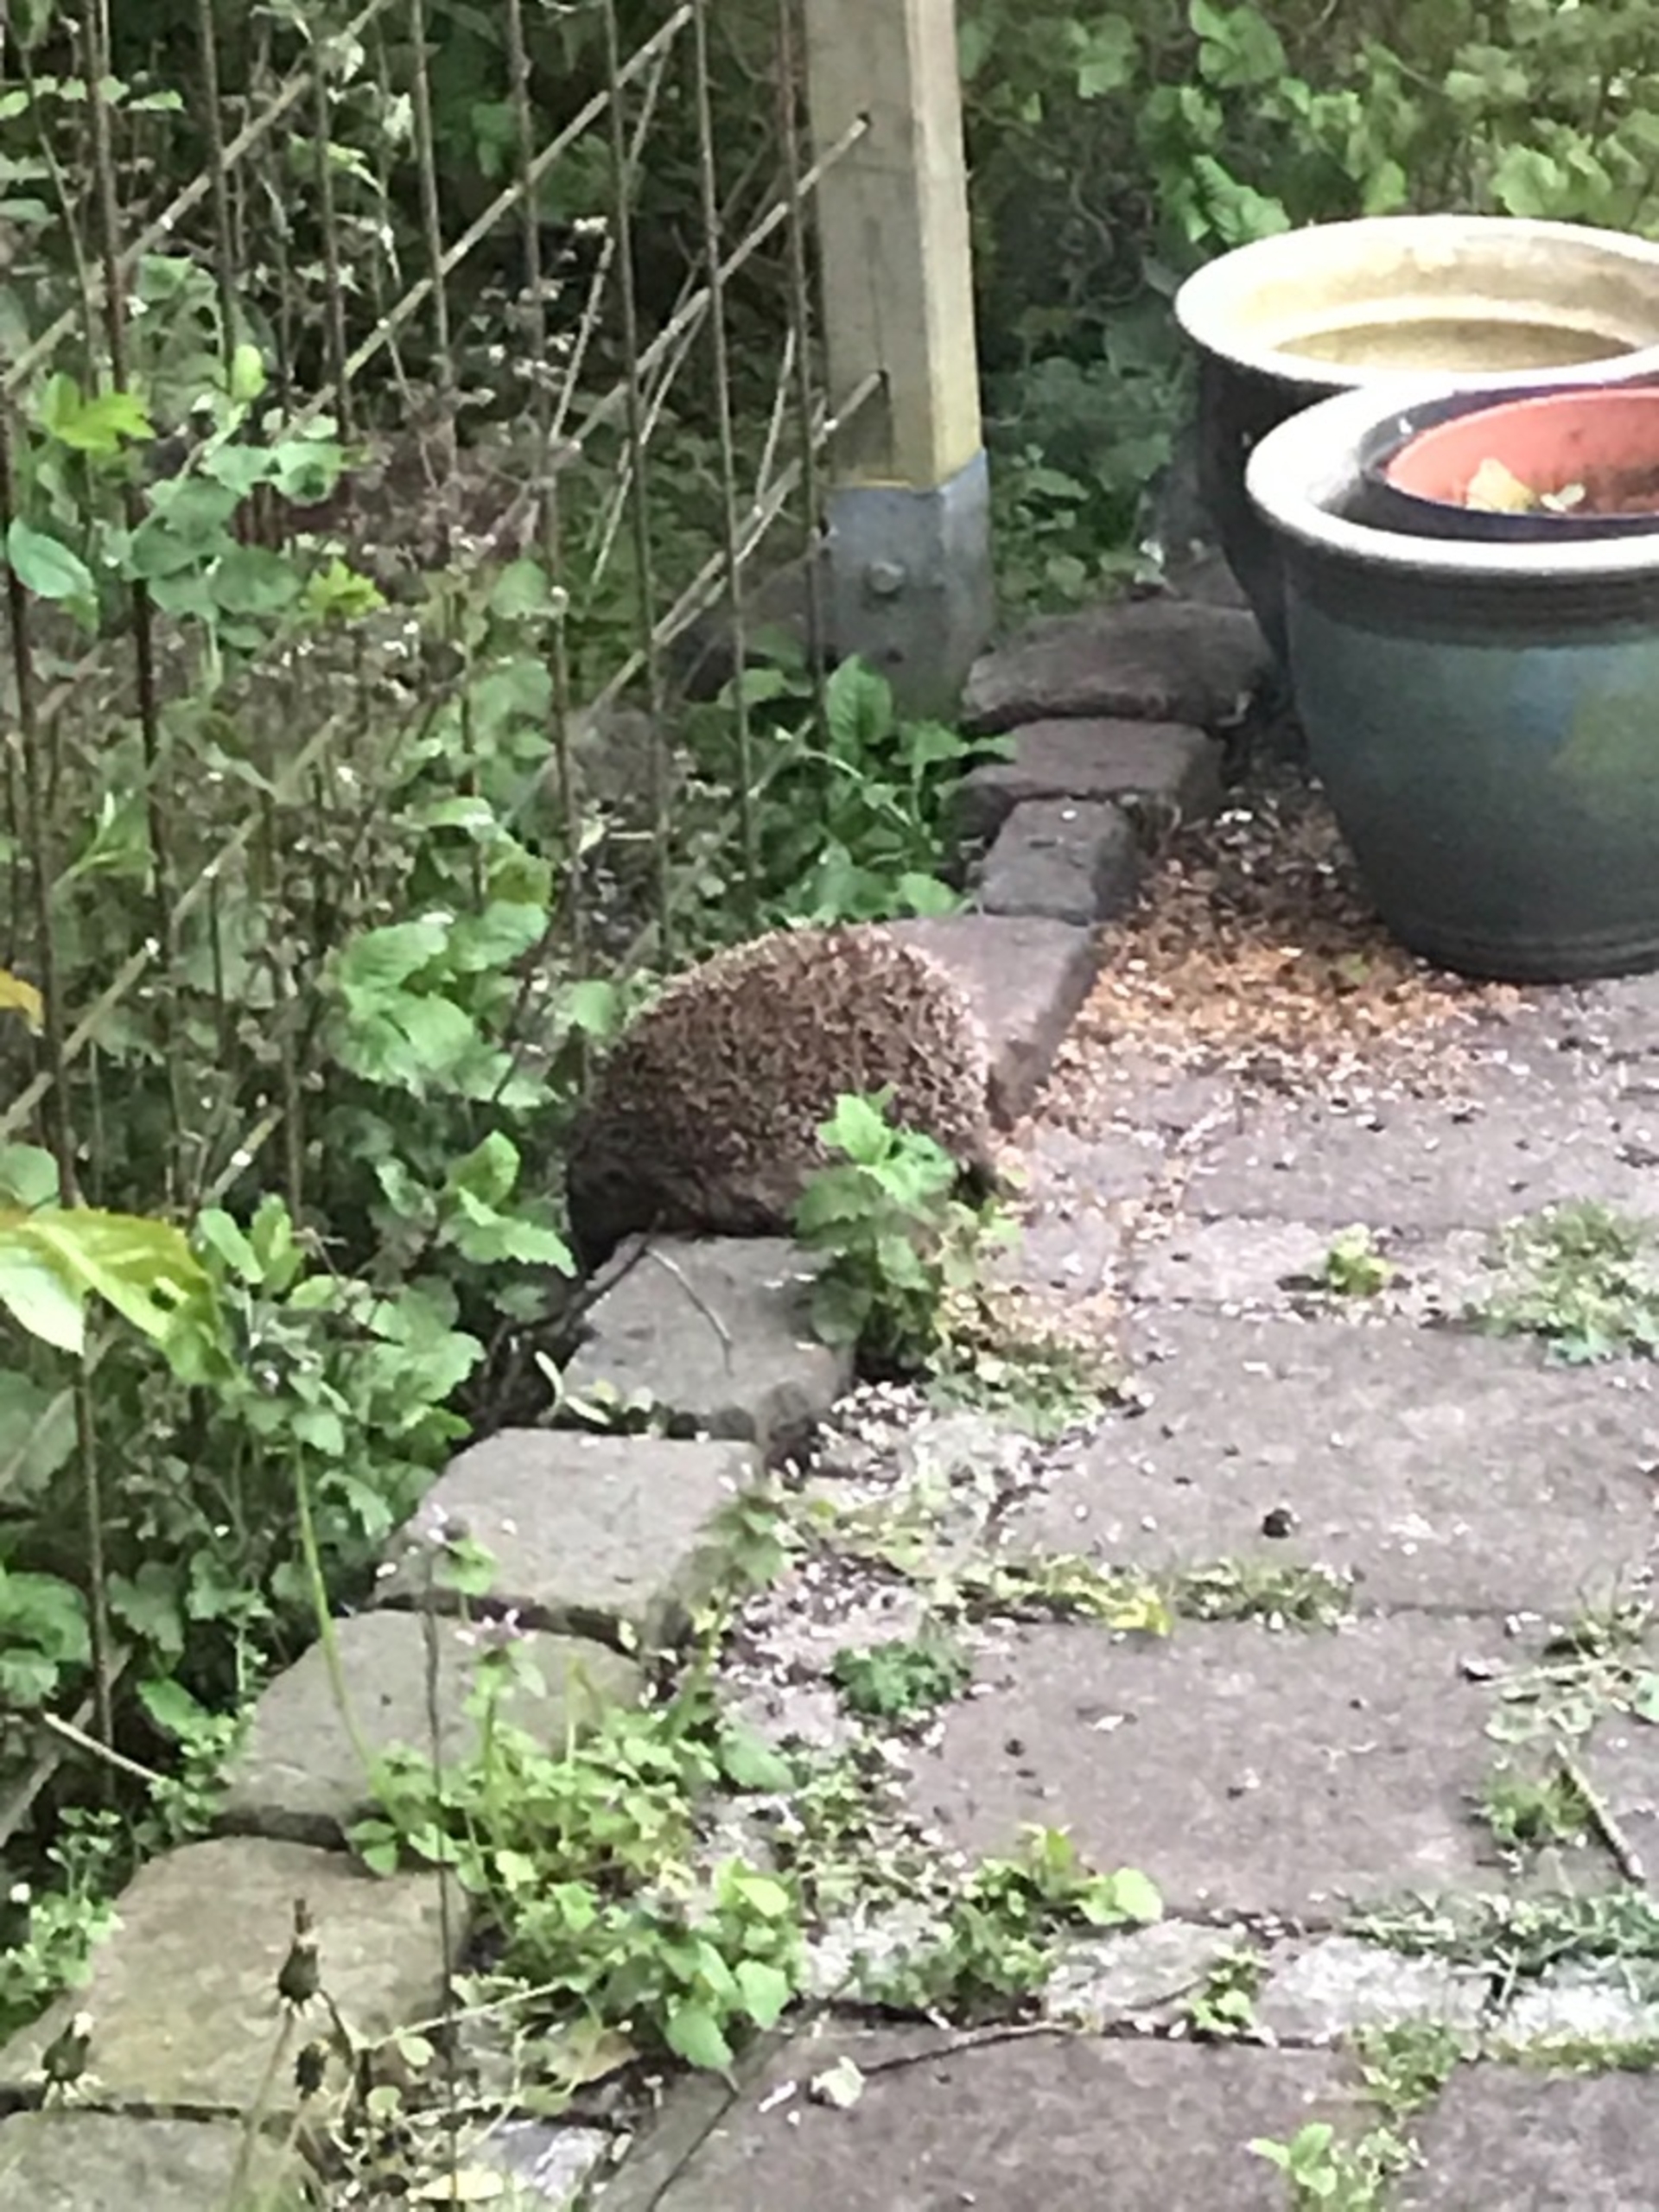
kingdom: Animalia
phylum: Chordata
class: Mammalia
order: Erinaceomorpha
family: Erinaceidae
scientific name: Erinaceidae
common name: Pindsvin
